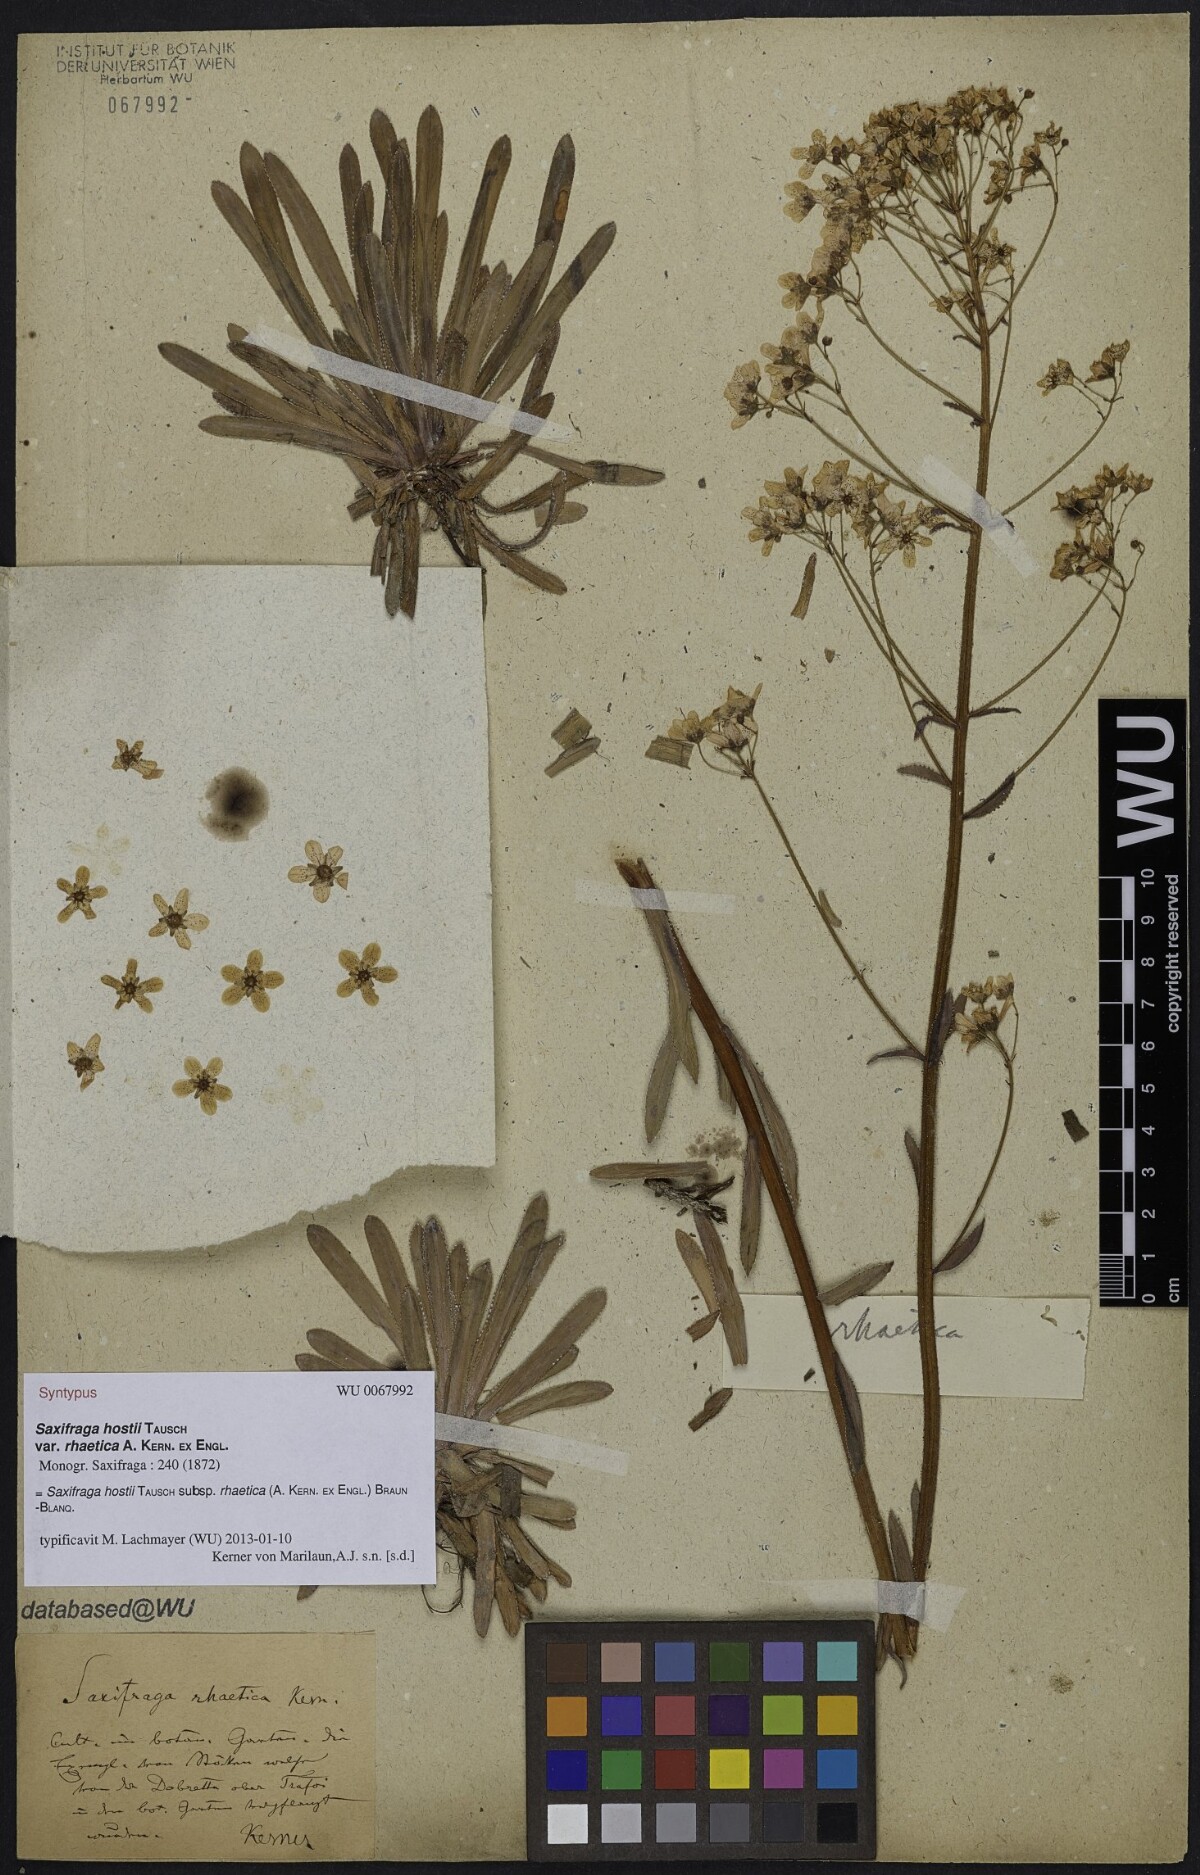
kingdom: Plantae
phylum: Tracheophyta
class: Magnoliopsida
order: Saxifragales
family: Saxifragaceae
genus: Saxifraga
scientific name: Saxifraga hostii
